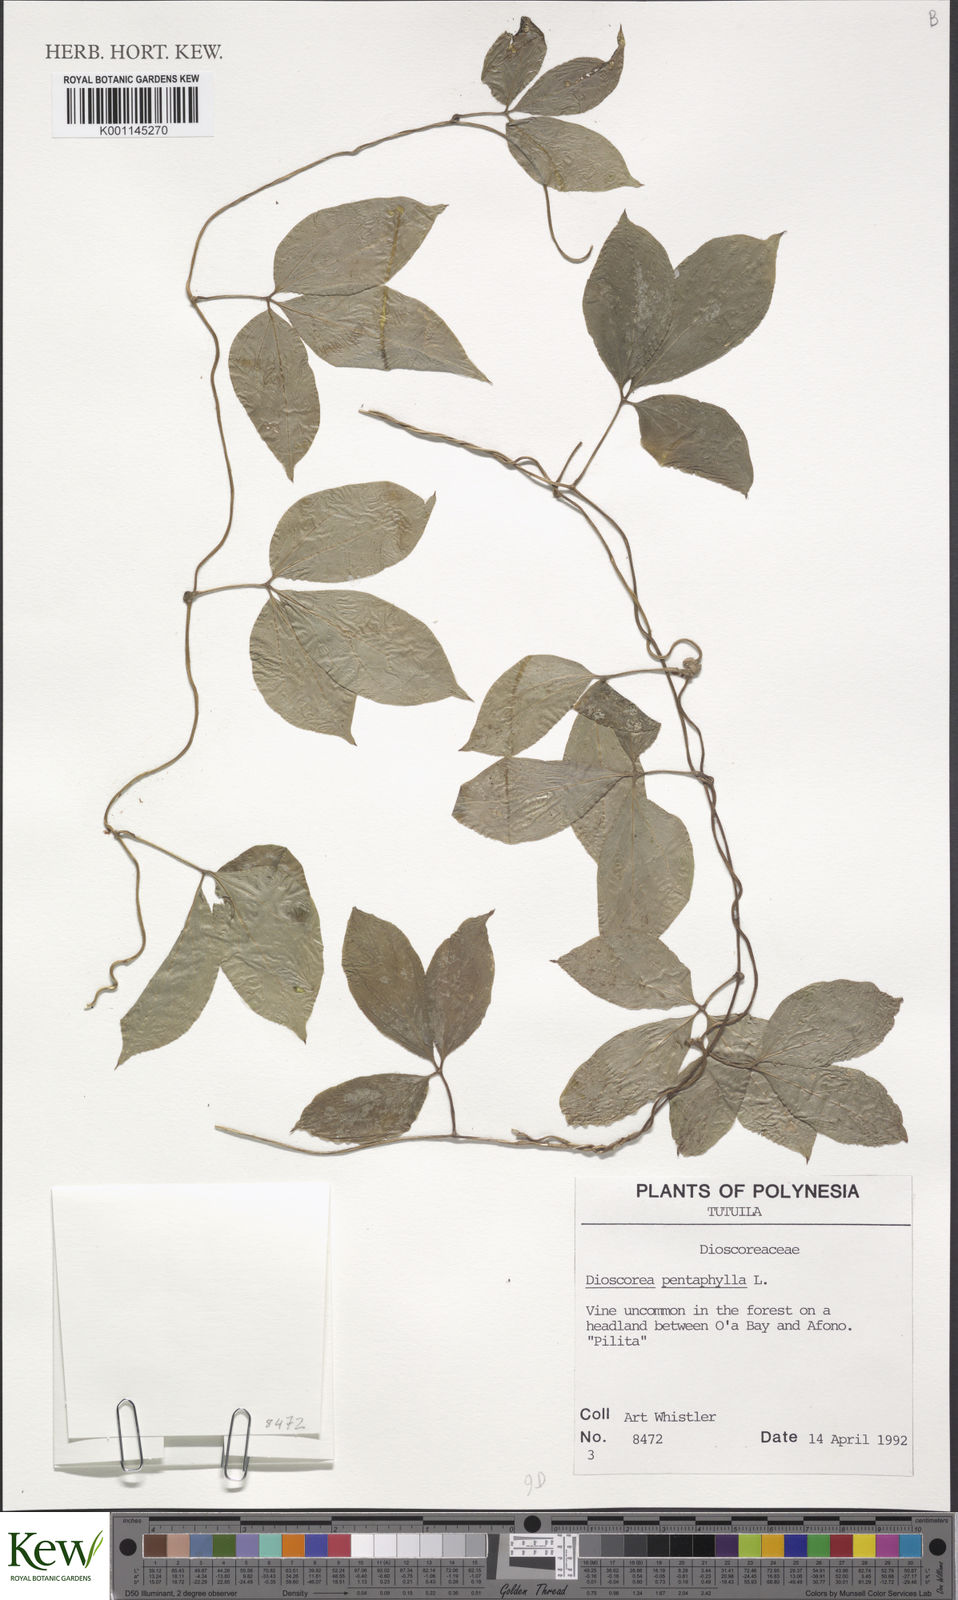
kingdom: Plantae
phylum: Tracheophyta
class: Liliopsida
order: Dioscoreales
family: Dioscoreaceae
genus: Dioscorea
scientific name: Dioscorea pentaphylla
